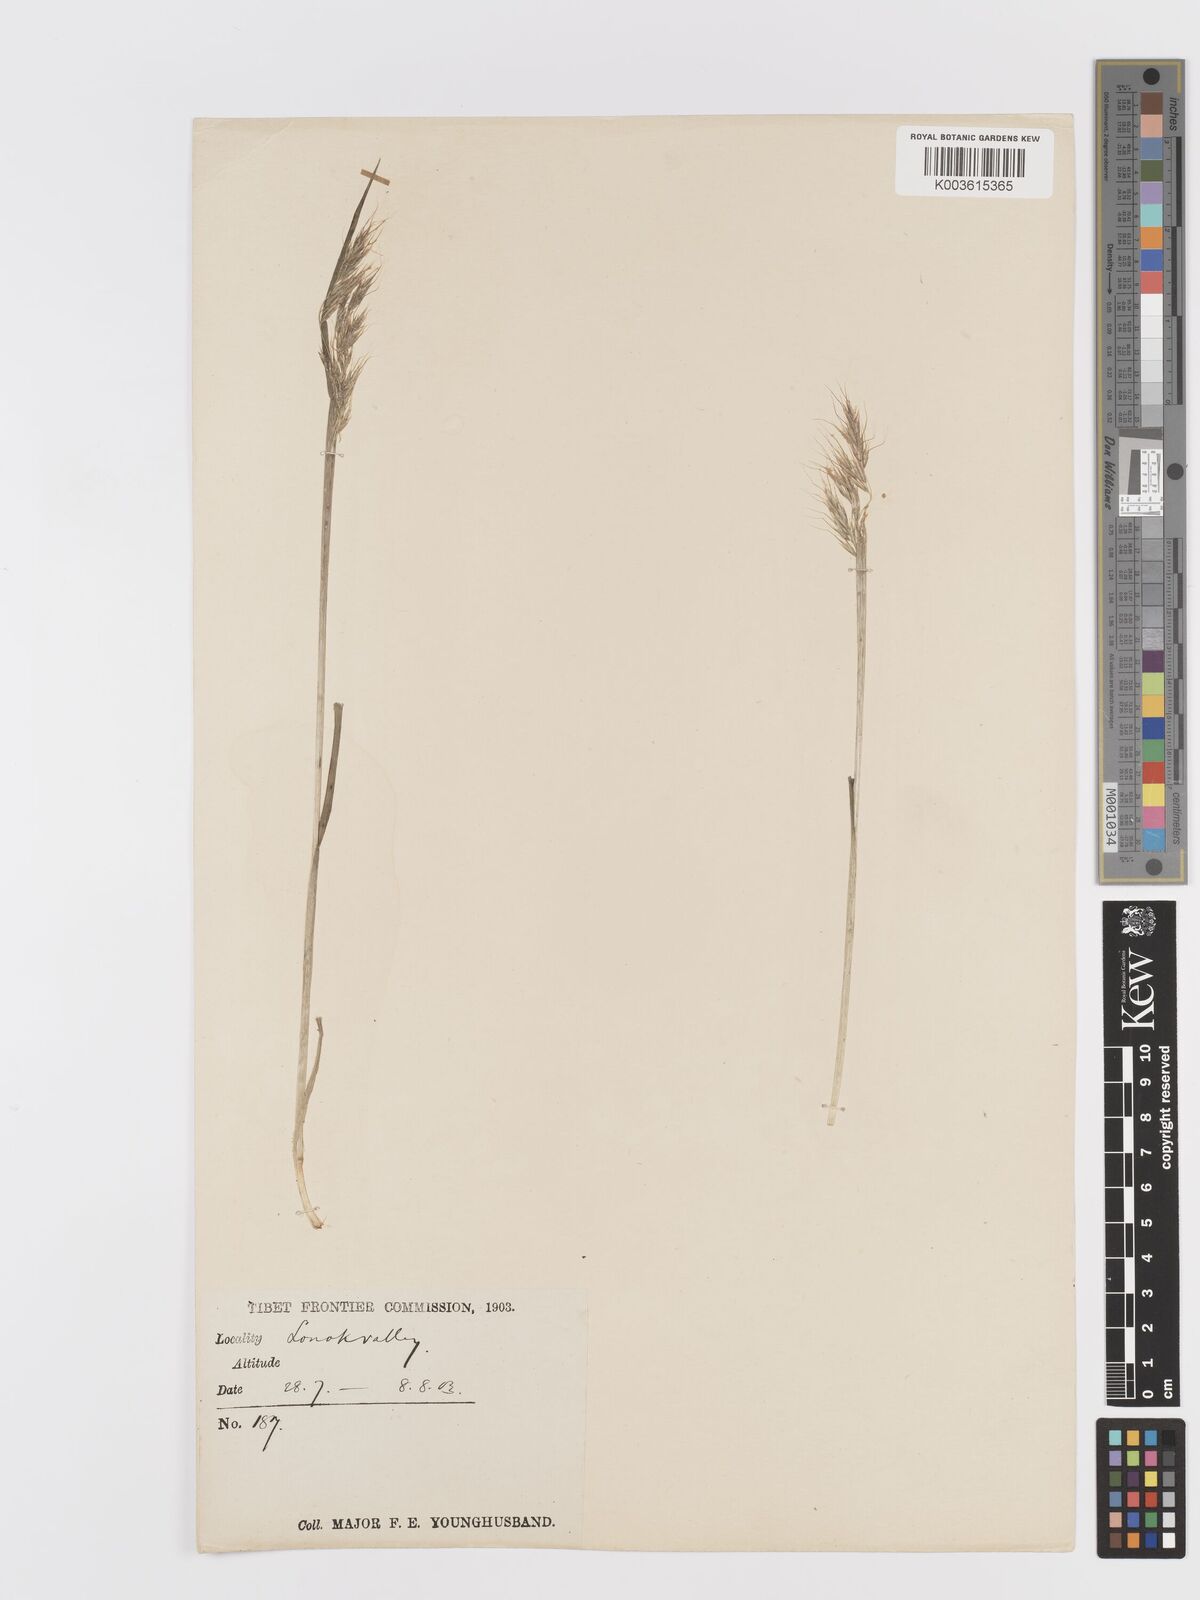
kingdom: Plantae
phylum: Tracheophyta
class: Liliopsida
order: Poales
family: Poaceae
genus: Sibirotrisetum
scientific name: Sibirotrisetum scitulum
